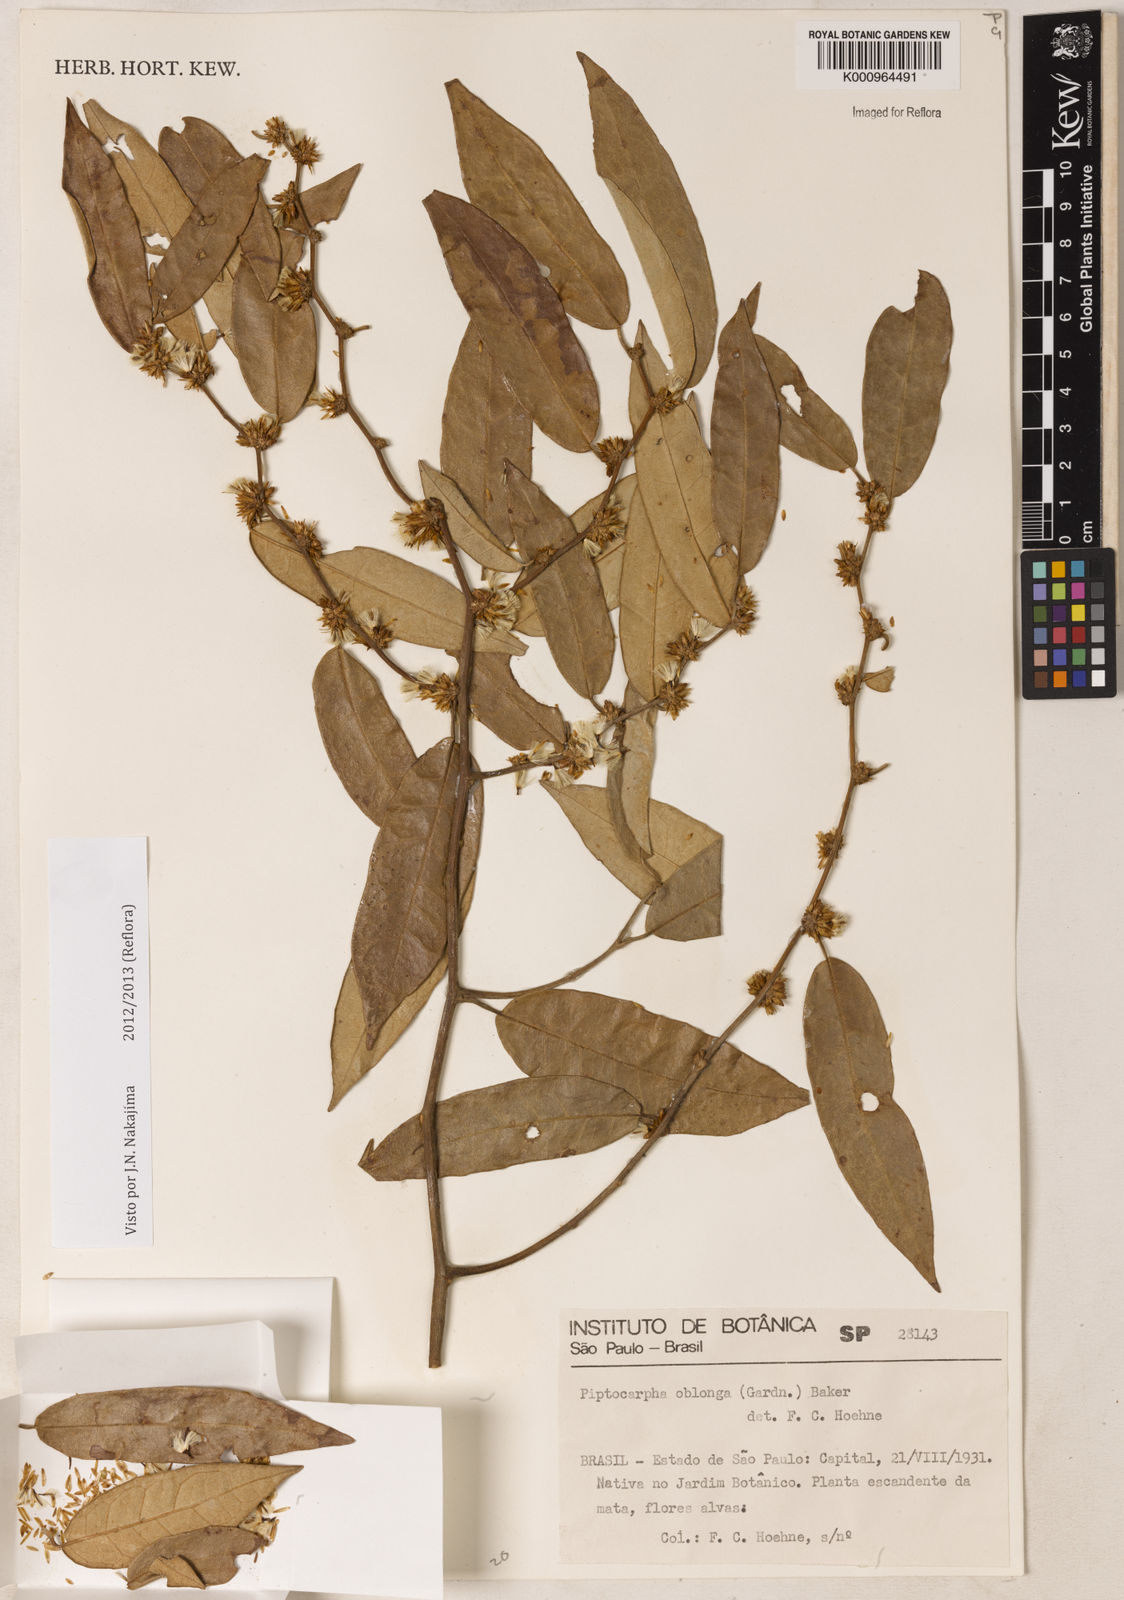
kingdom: Plantae
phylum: Tracheophyta
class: Magnoliopsida
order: Asterales
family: Asteraceae
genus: Piptocarpha
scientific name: Piptocarpha oblonga
